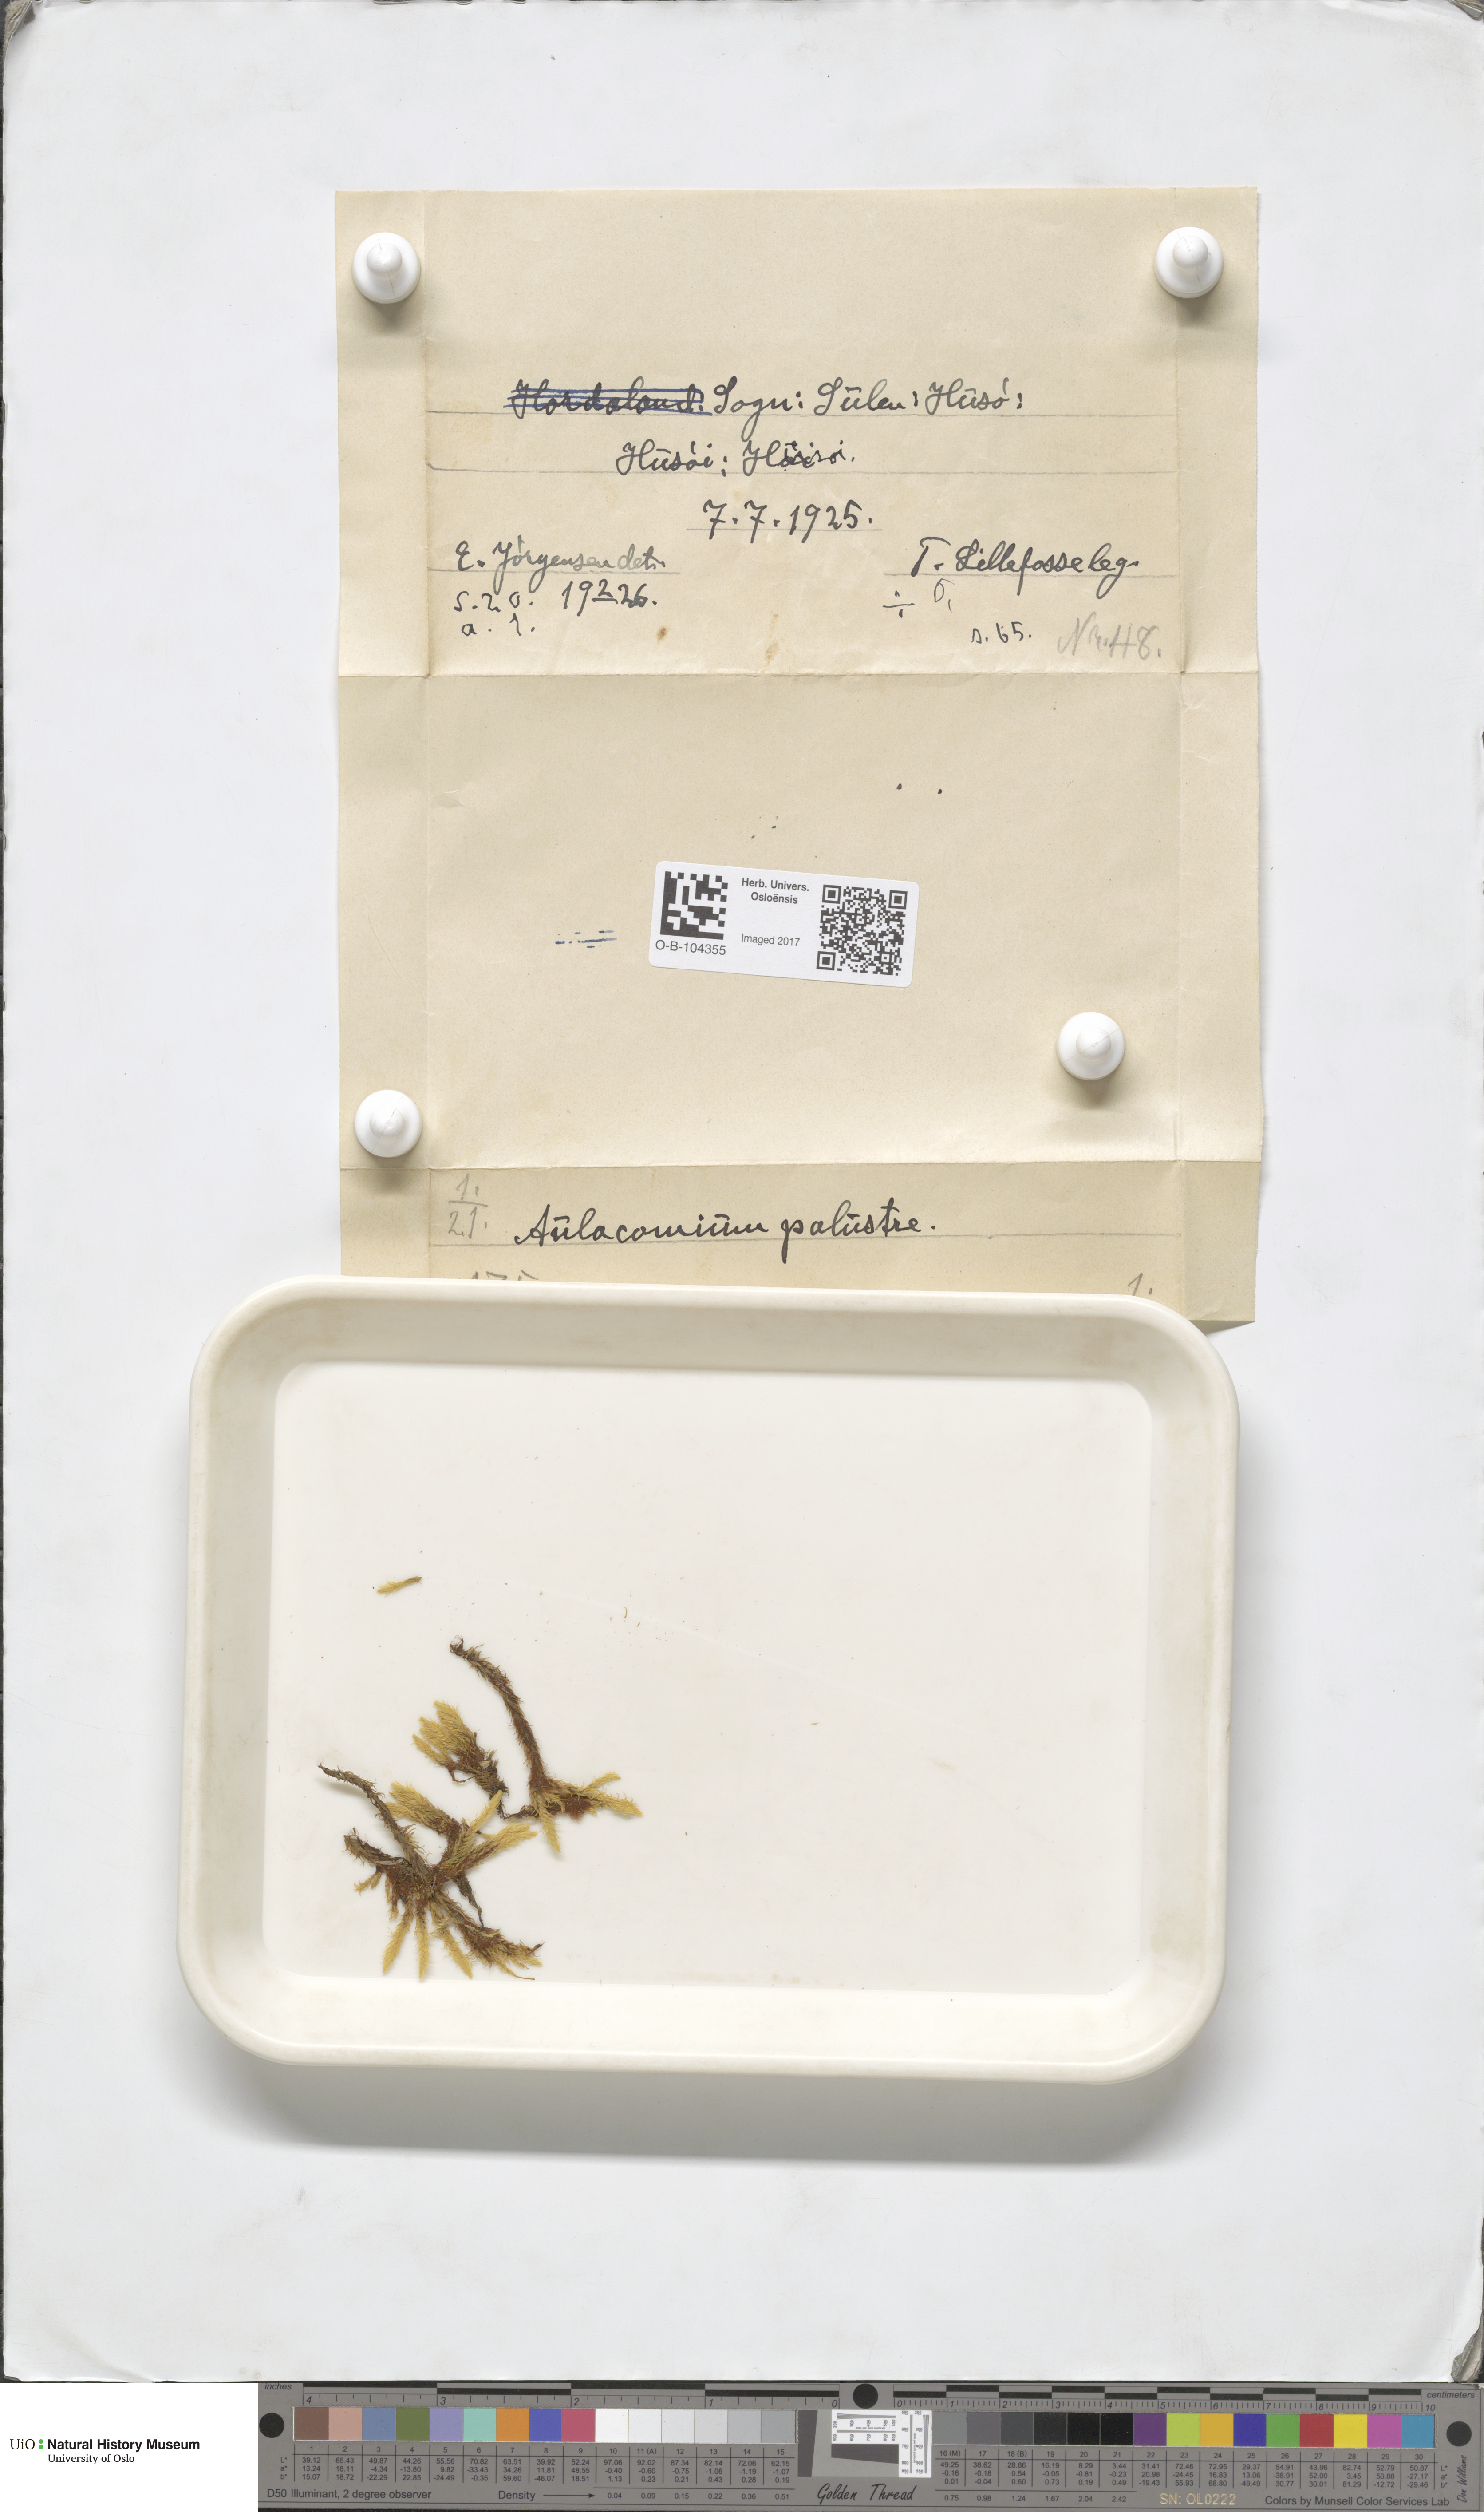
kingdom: Plantae
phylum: Bryophyta
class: Bryopsida
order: Aulacomniales
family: Aulacomniaceae
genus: Aulacomnium
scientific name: Aulacomnium palustre
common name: Bog groove-moss
